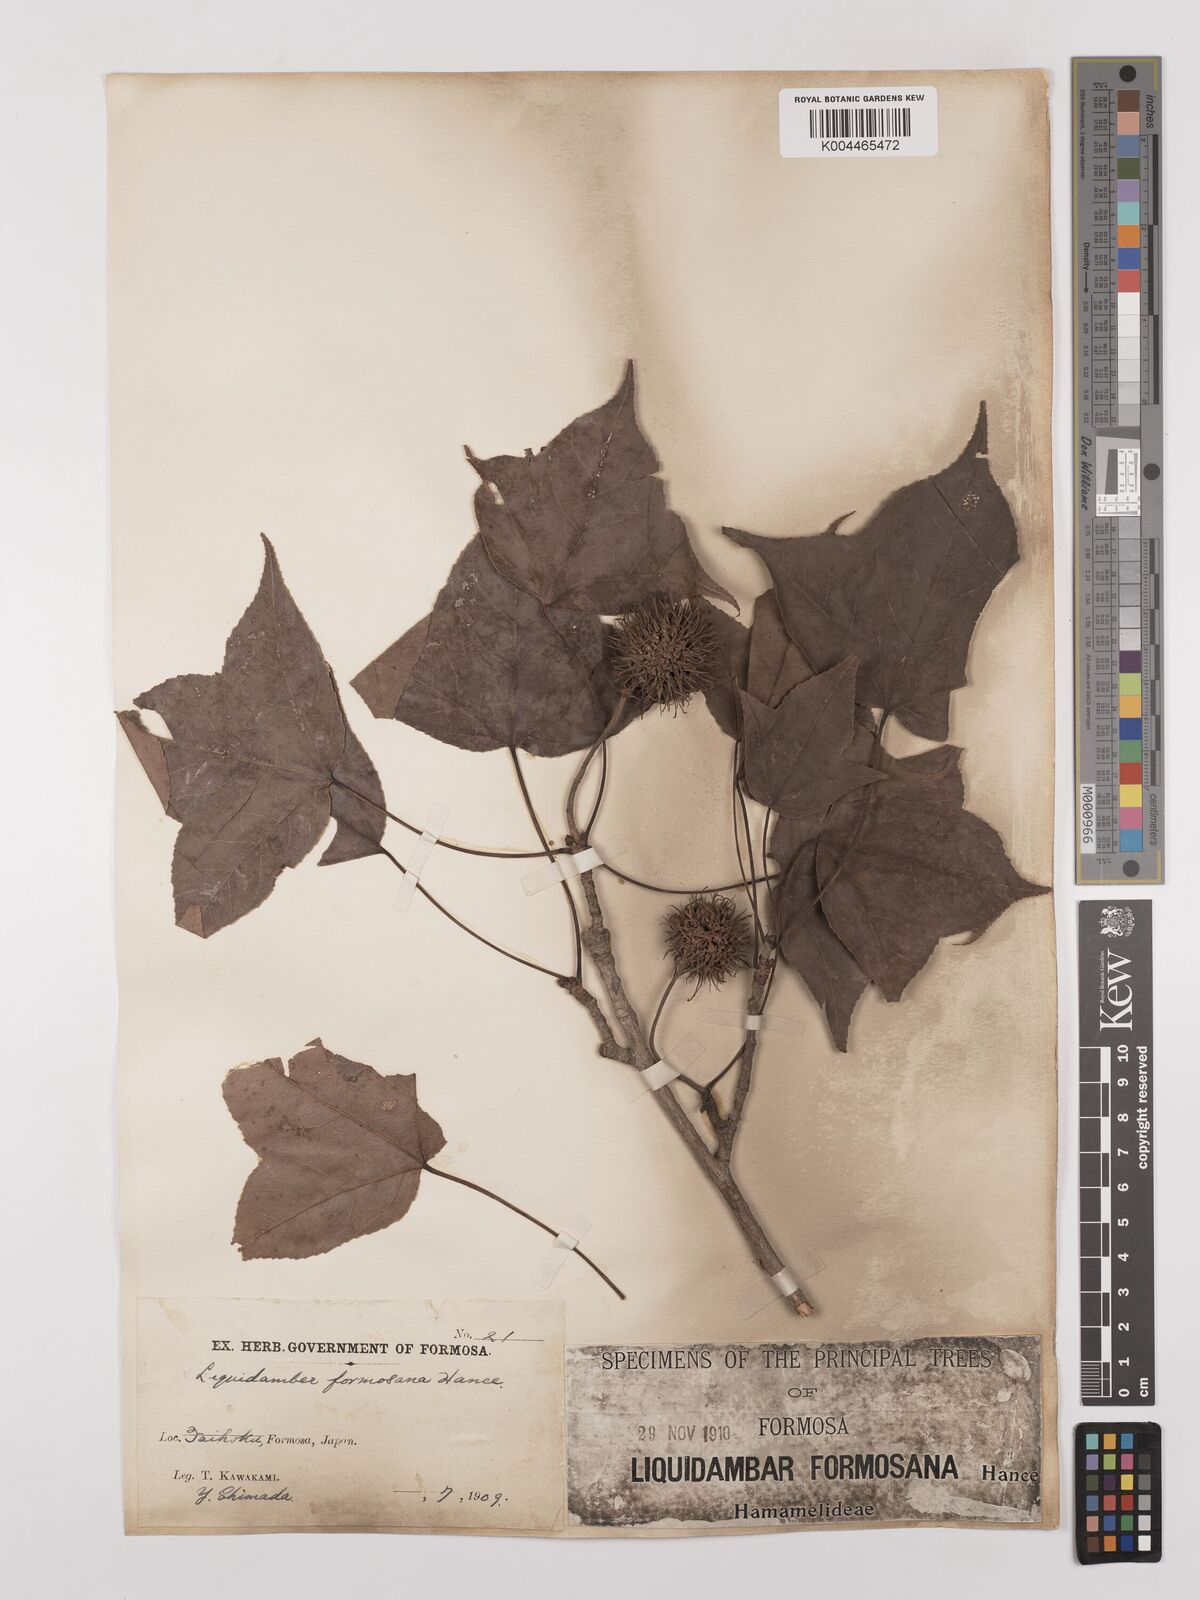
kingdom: Plantae
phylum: Tracheophyta
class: Magnoliopsida
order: Saxifragales
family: Altingiaceae
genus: Liquidambar
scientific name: Liquidambar formosana
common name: Chinese sweet gum
